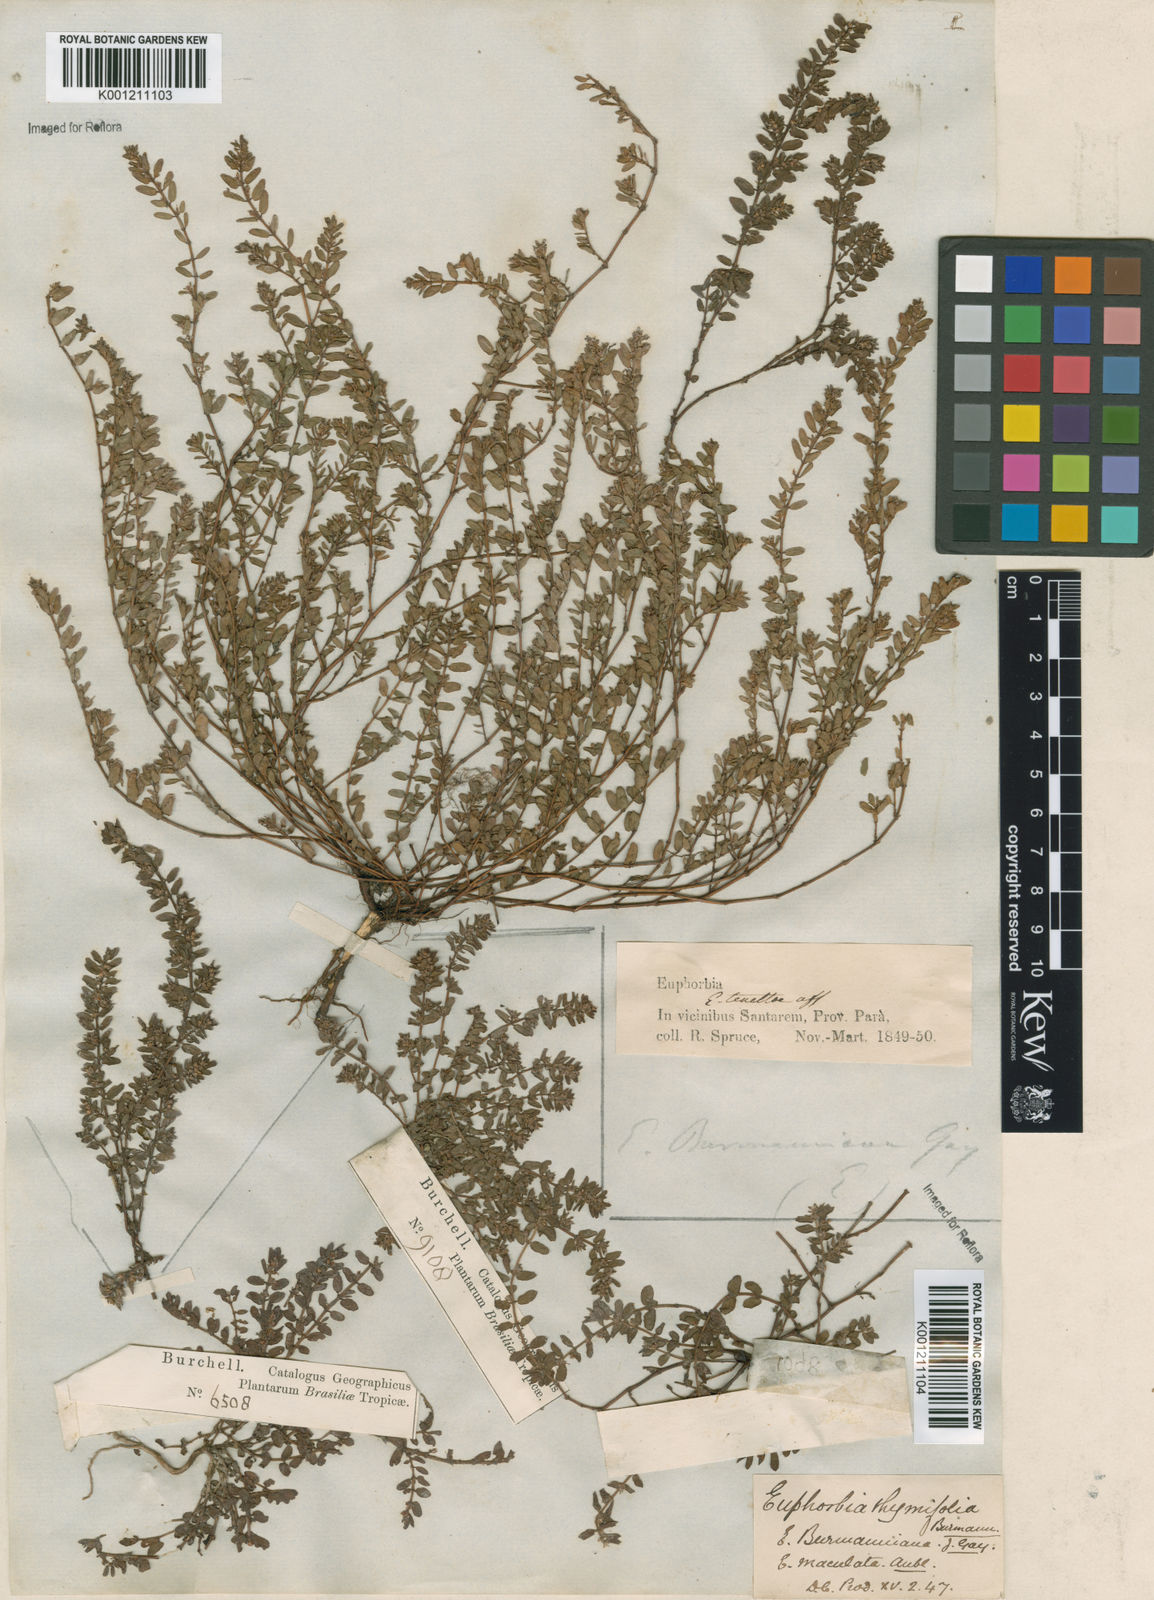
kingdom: Plantae
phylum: Tracheophyta
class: Magnoliopsida
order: Malpighiales
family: Euphorbiaceae
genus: Euphorbia
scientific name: Euphorbia thymifolia
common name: Gulf sandmat
